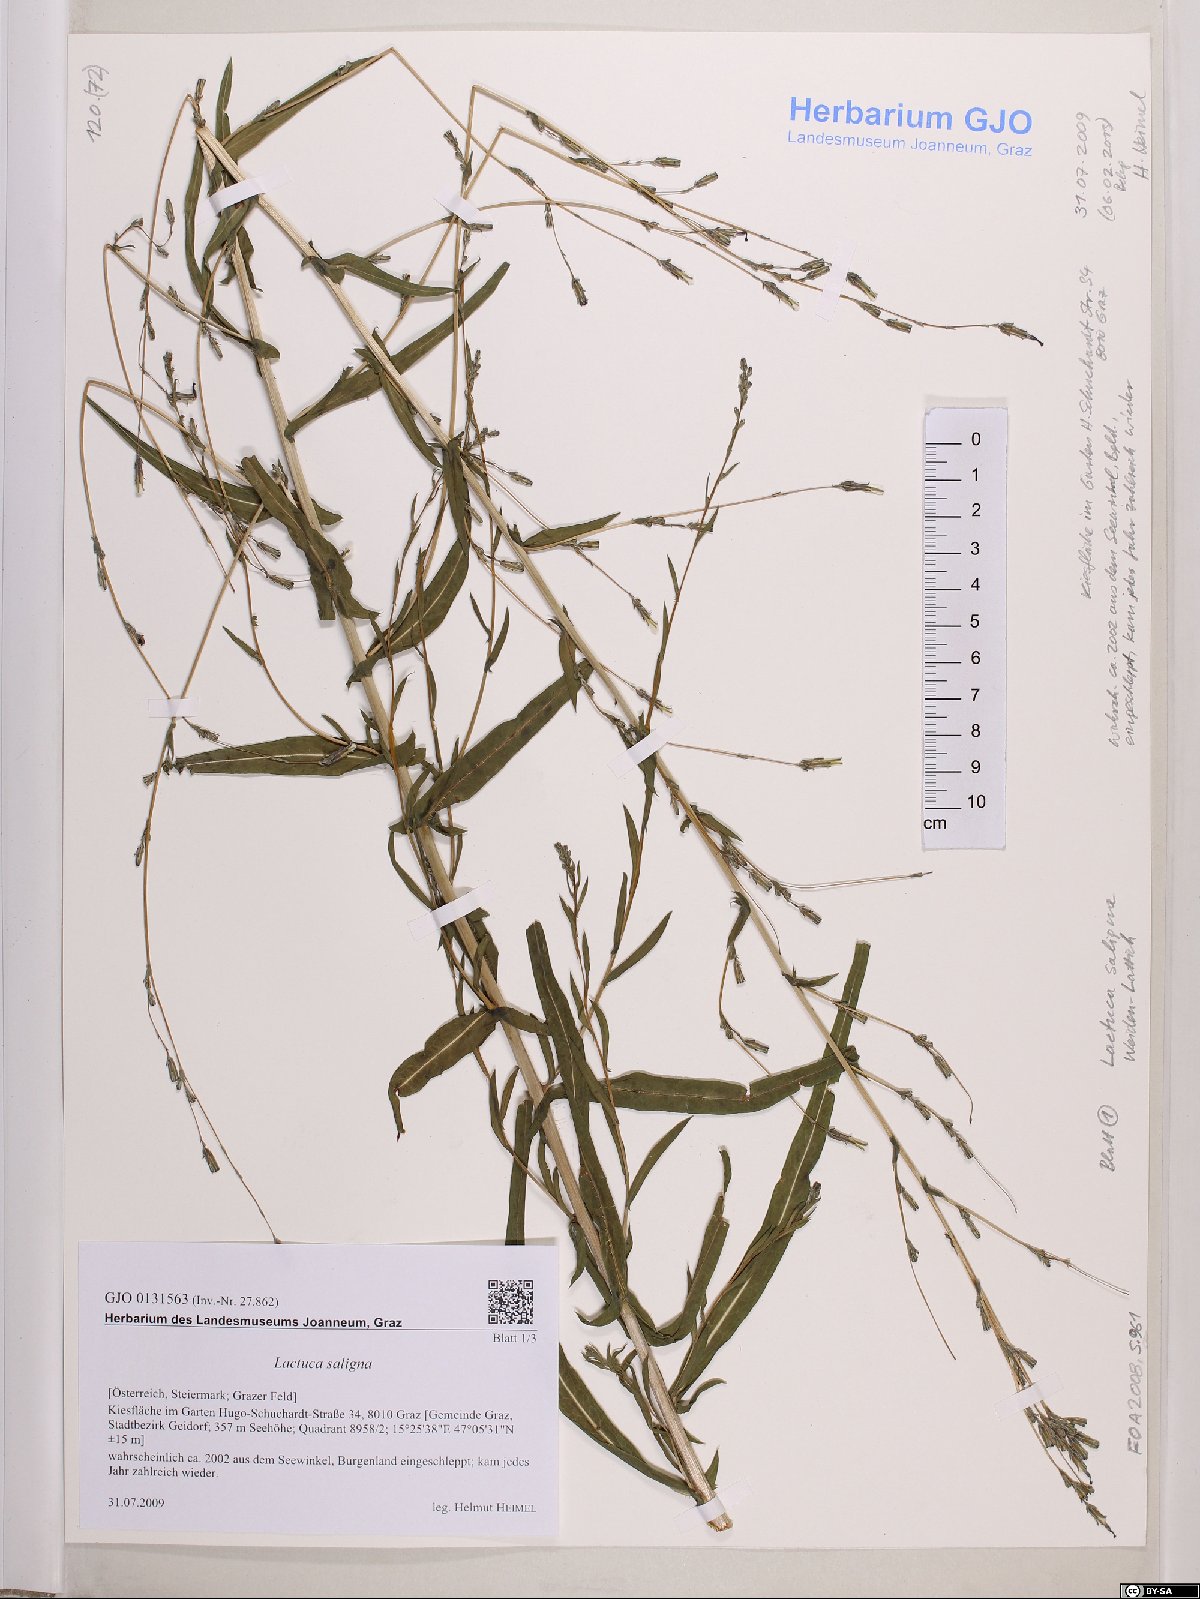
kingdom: Plantae
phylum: Tracheophyta
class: Magnoliopsida
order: Asterales
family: Asteraceae
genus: Lactuca
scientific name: Lactuca saligna
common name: Wild lettuce
